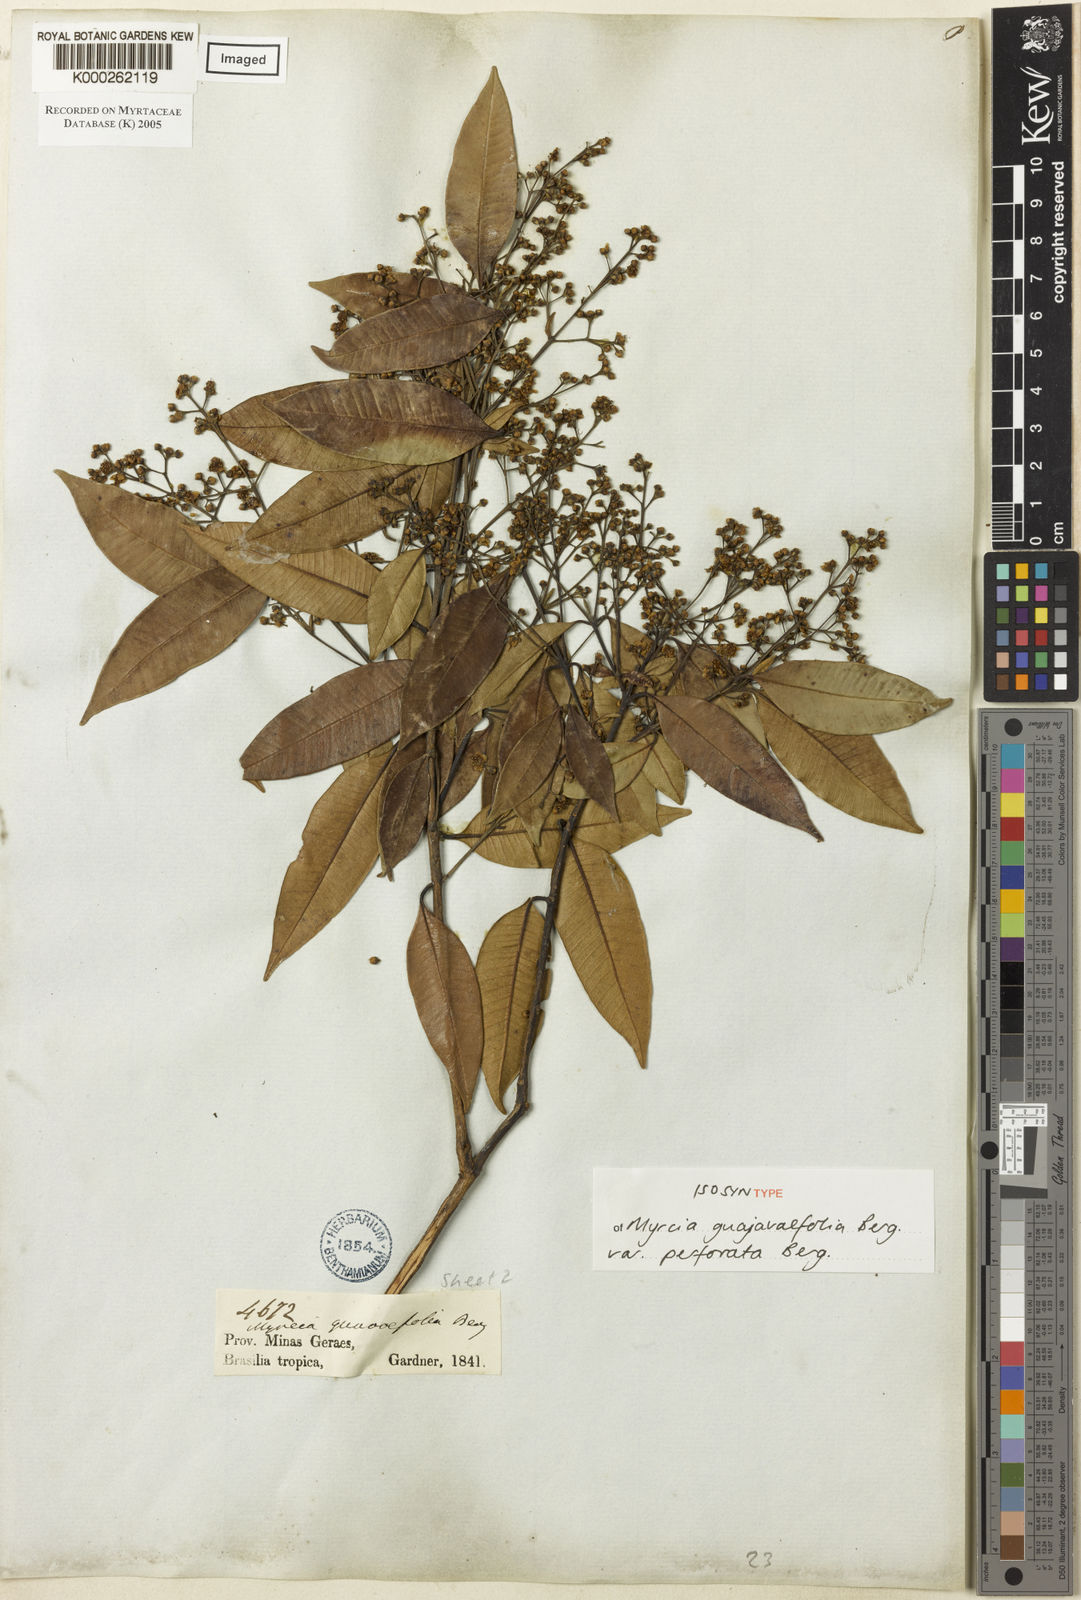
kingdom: Plantae
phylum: Tracheophyta
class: Magnoliopsida
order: Myrtales
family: Myrtaceae
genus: Myrcia
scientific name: Myrcia splendens
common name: Surinam cherry
